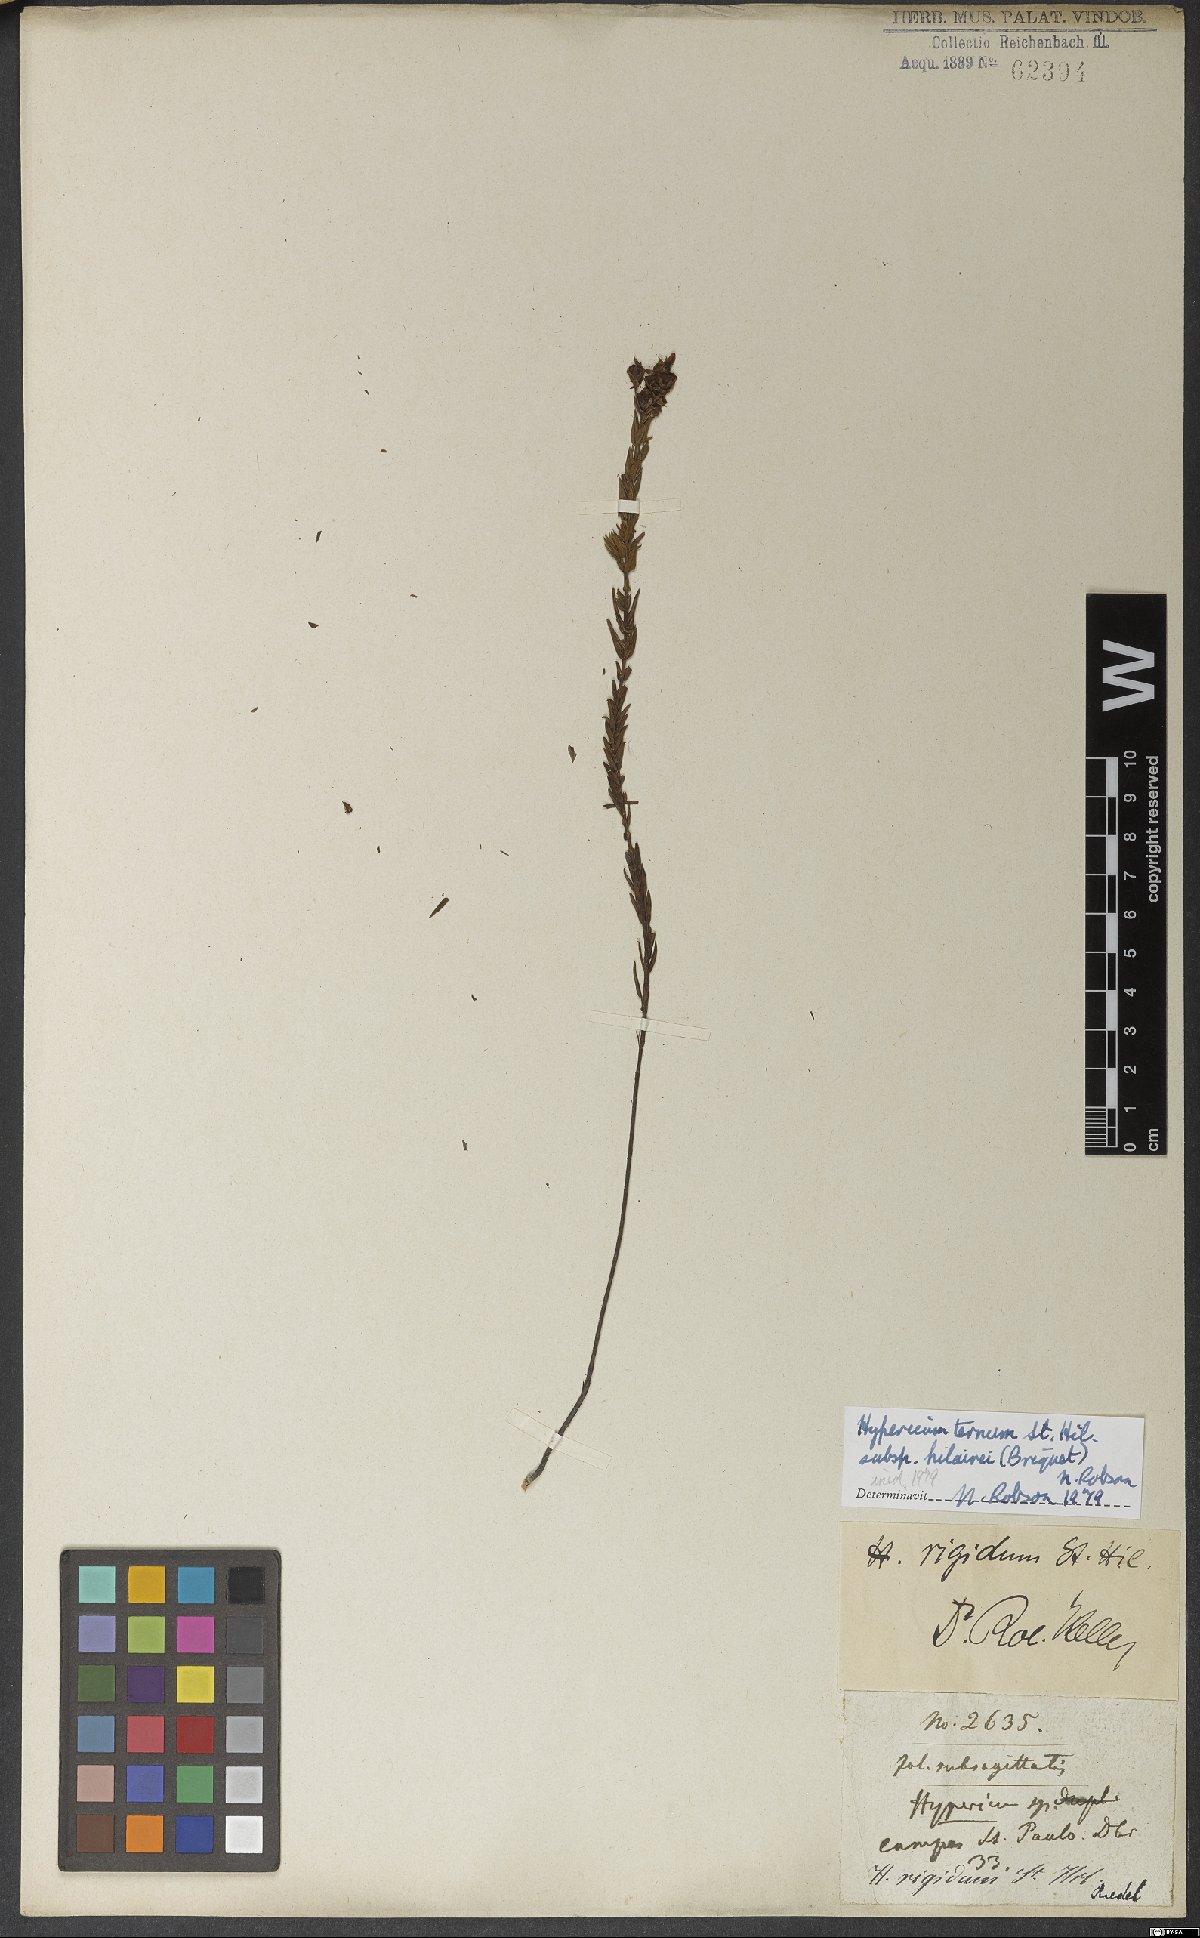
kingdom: Plantae
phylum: Tracheophyta
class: Magnoliopsida
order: Malpighiales
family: Hypericaceae
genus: Hypericum
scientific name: Hypericum ternum
